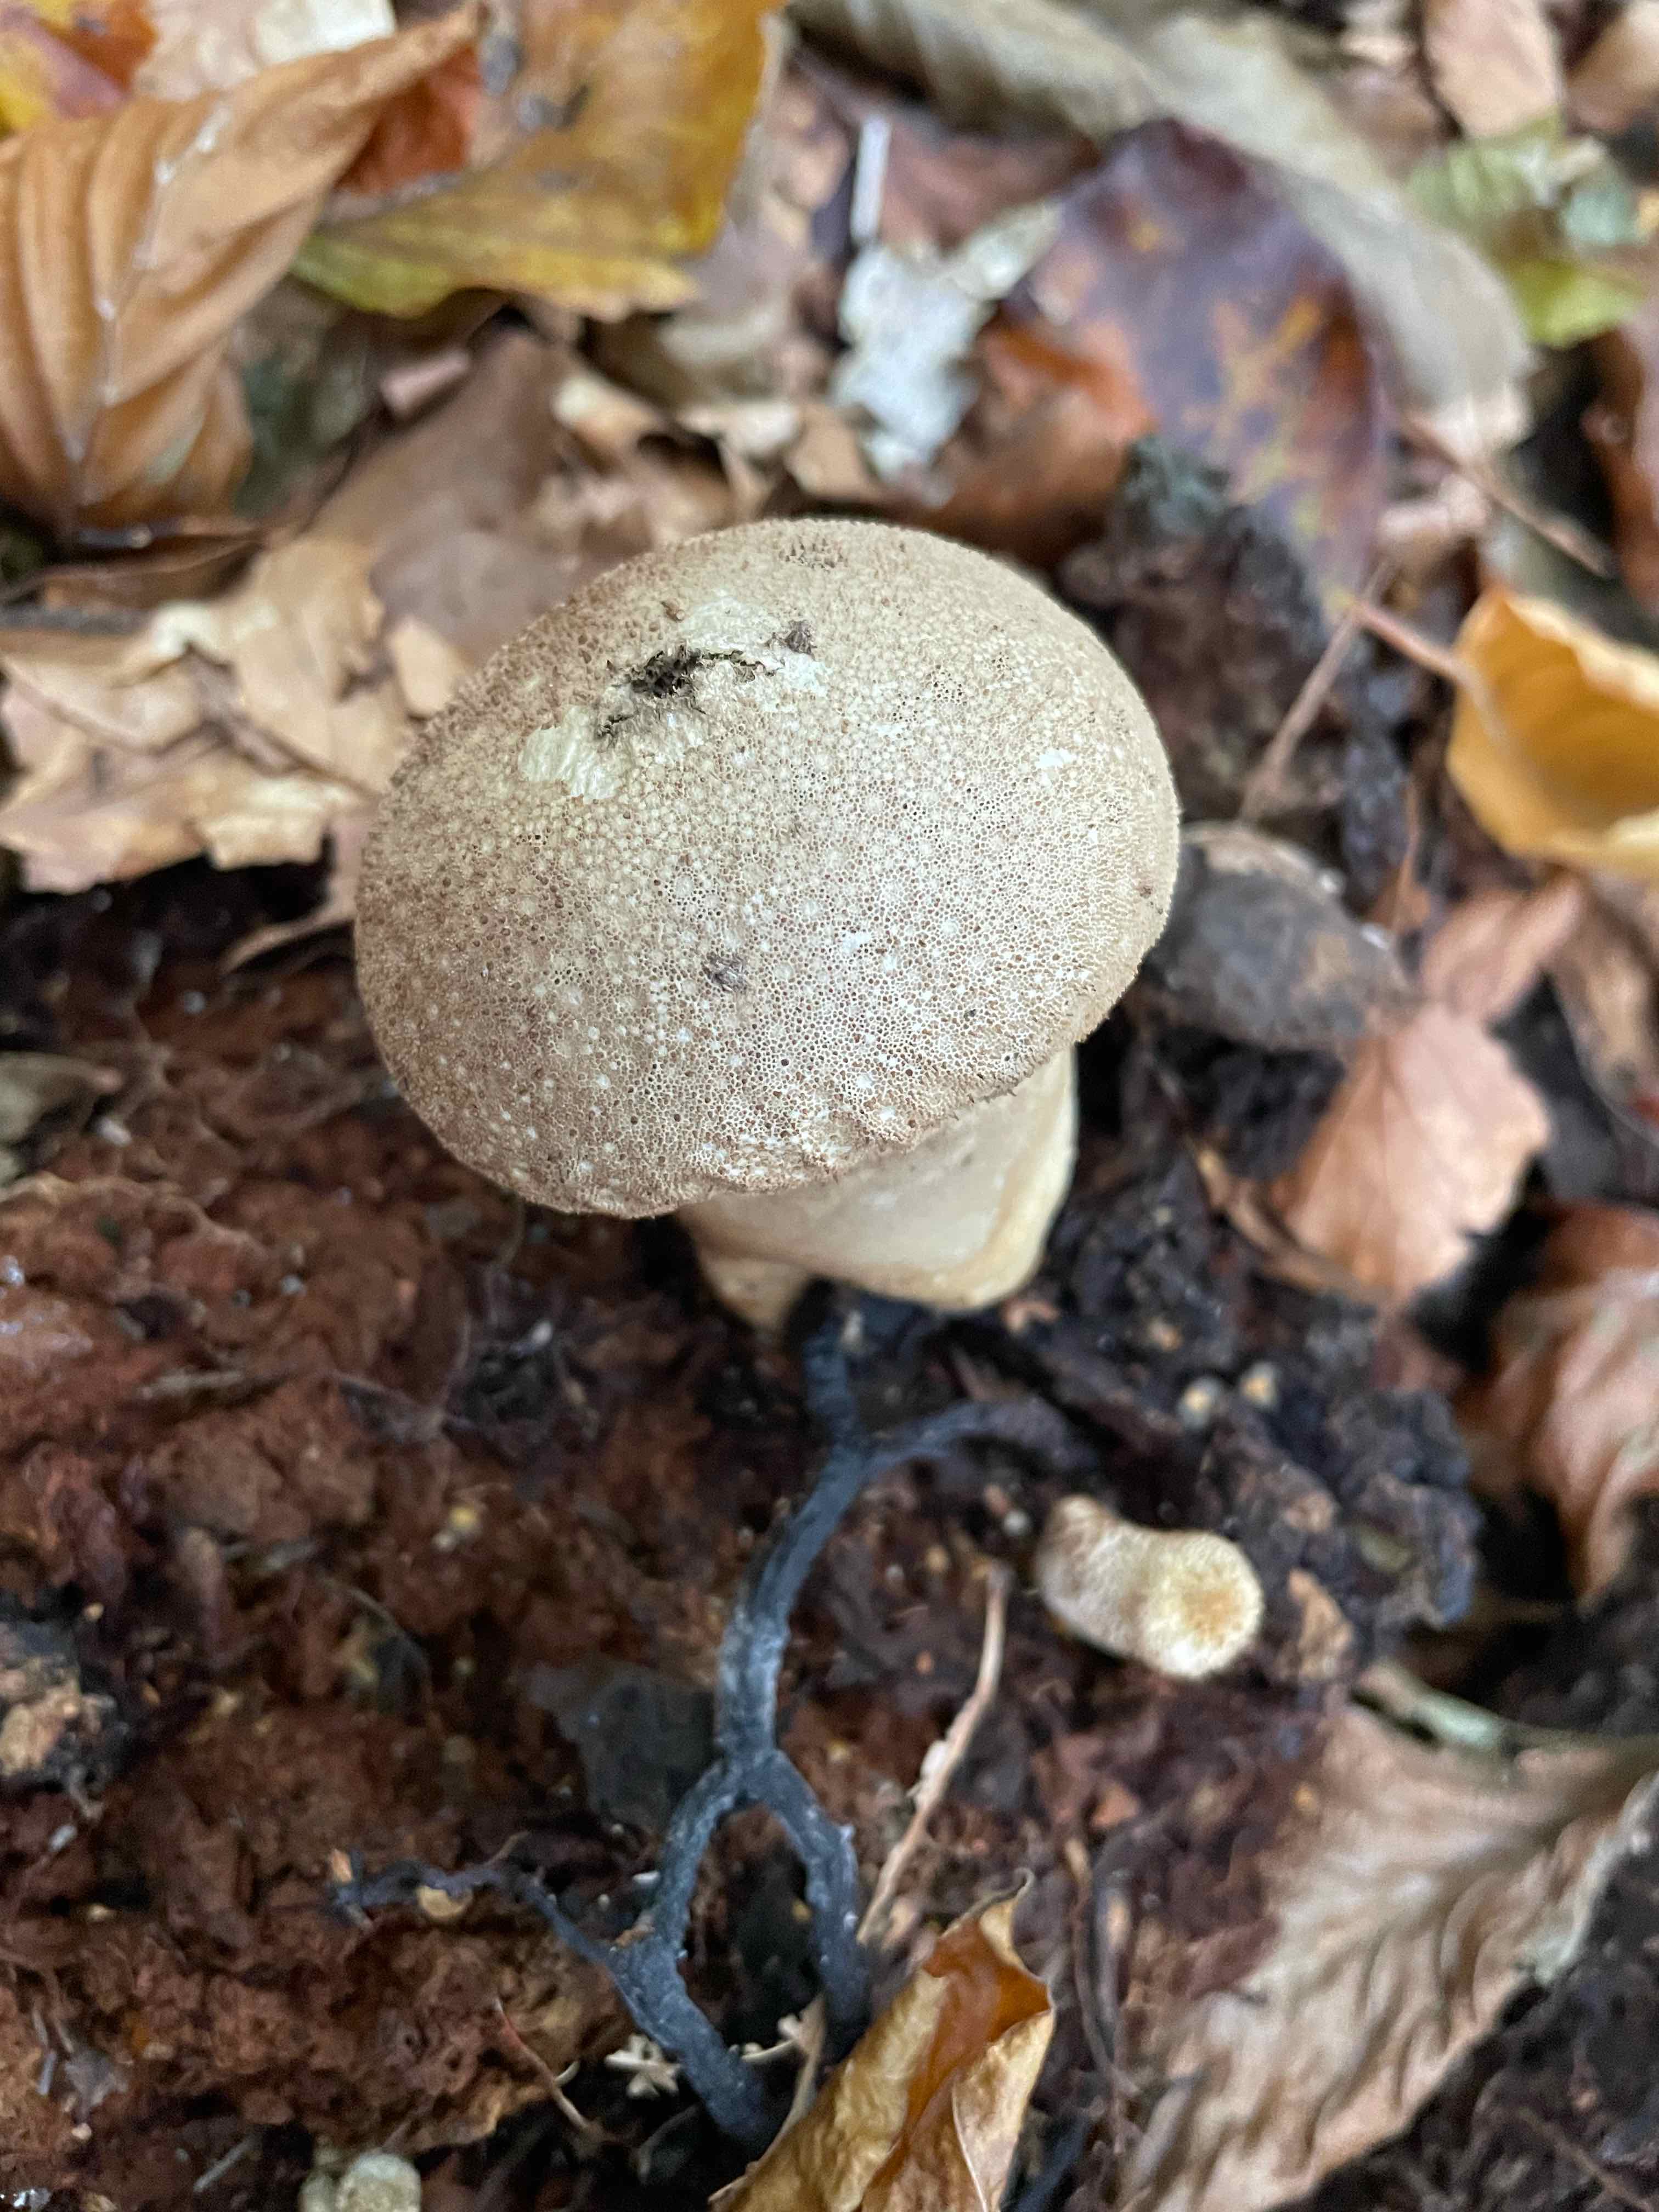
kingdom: Fungi
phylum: Basidiomycota
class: Agaricomycetes
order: Agaricales
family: Lycoperdaceae
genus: Lycoperdon
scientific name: Lycoperdon perlatum
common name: krystal-støvbold
